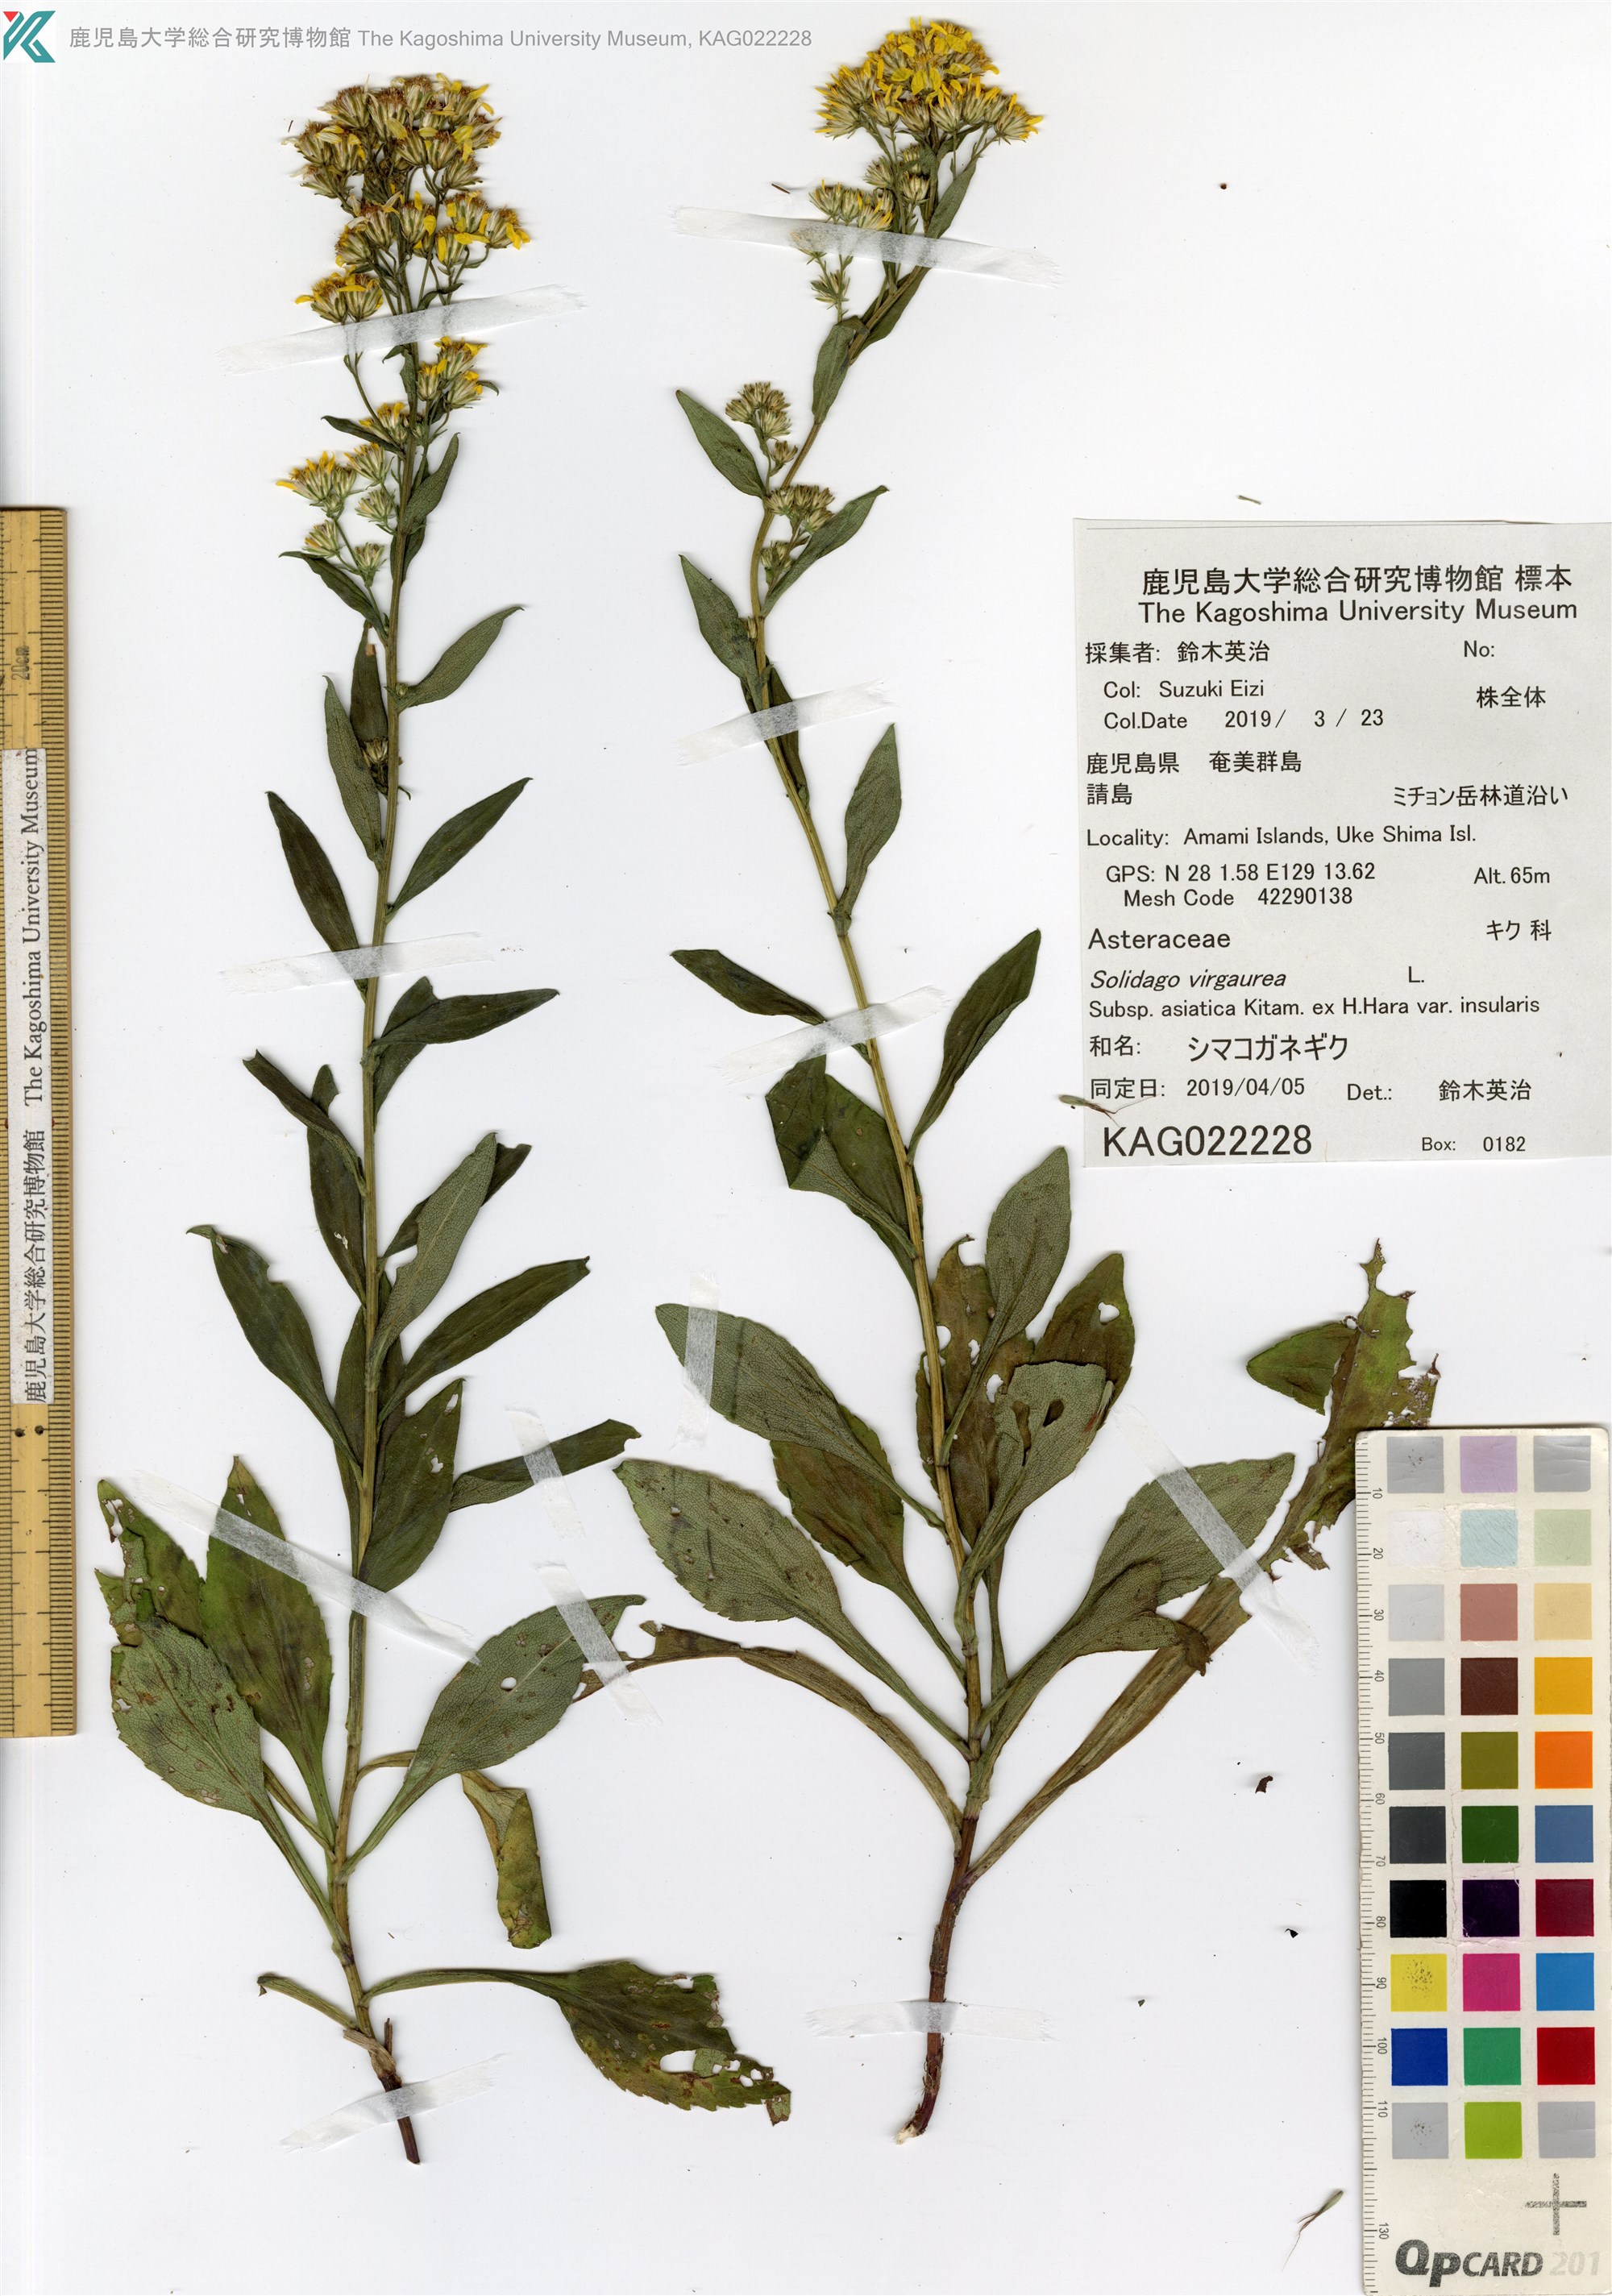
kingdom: Plantae
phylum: Tracheophyta
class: Magnoliopsida
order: Asterales
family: Asteraceae
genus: Solidago
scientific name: Solidago decurrens
